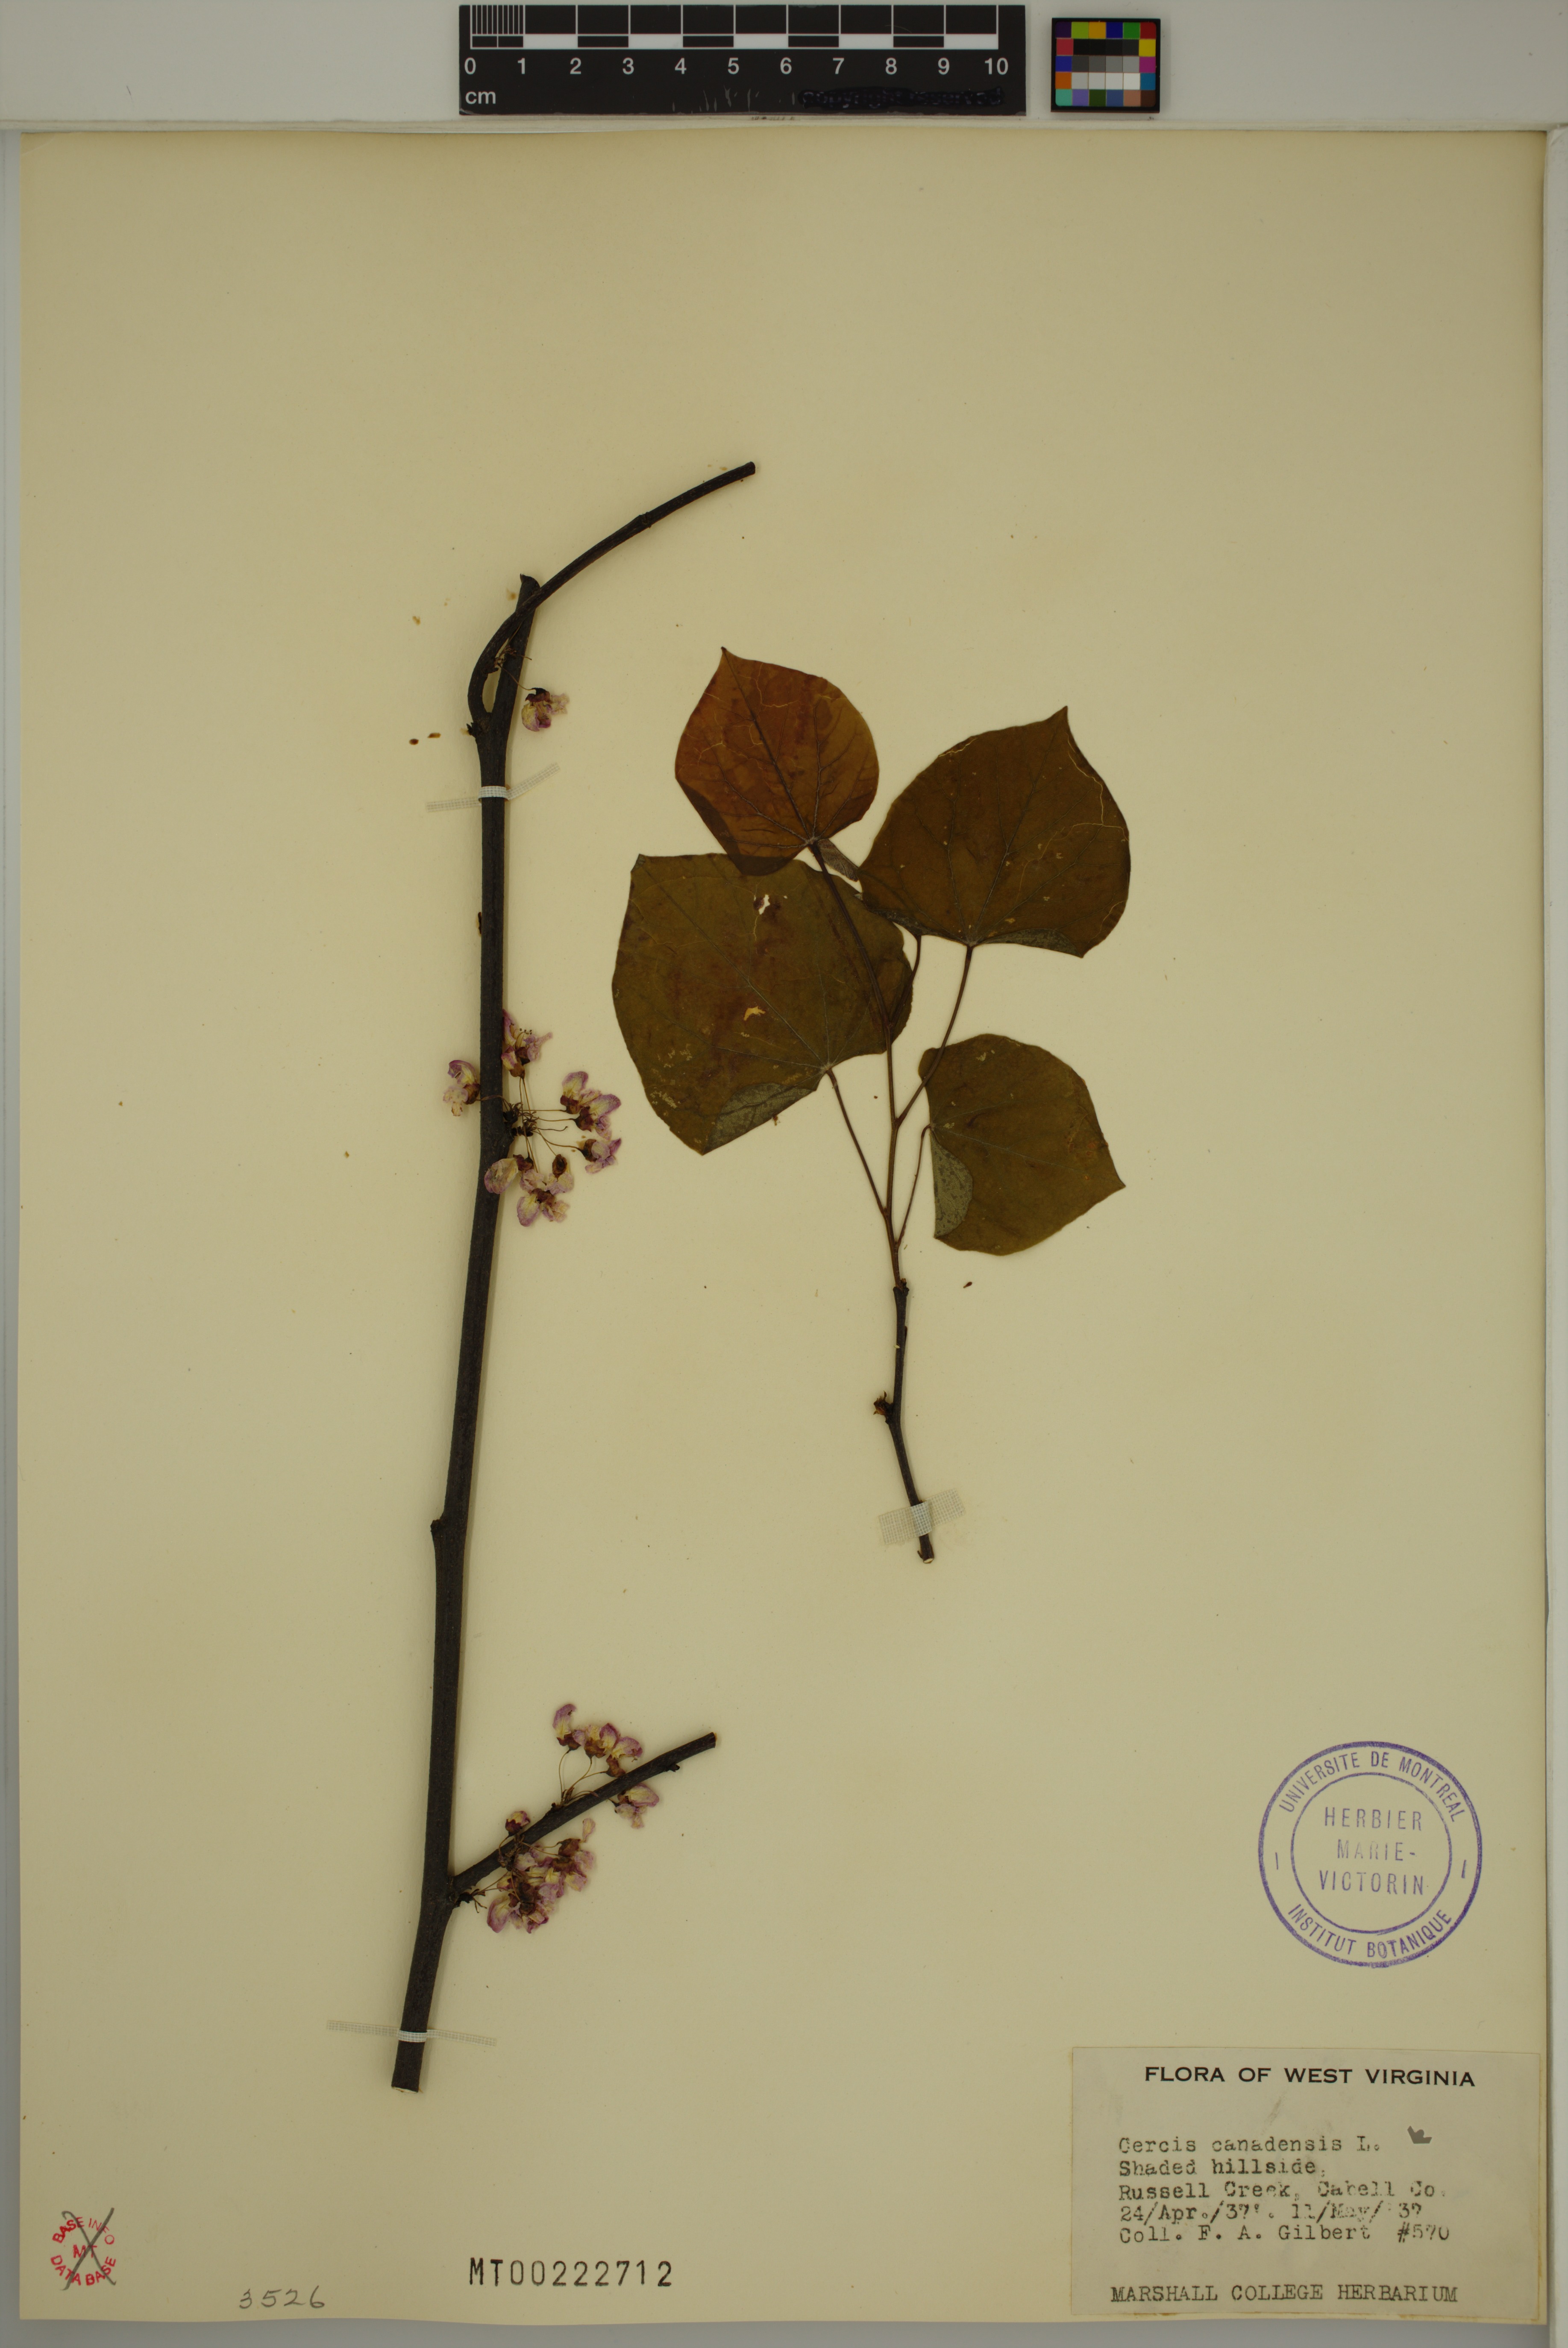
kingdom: Plantae
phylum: Tracheophyta
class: Magnoliopsida
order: Fabales
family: Fabaceae
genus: Cercis
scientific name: Cercis canadensis
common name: Eastern redbud
